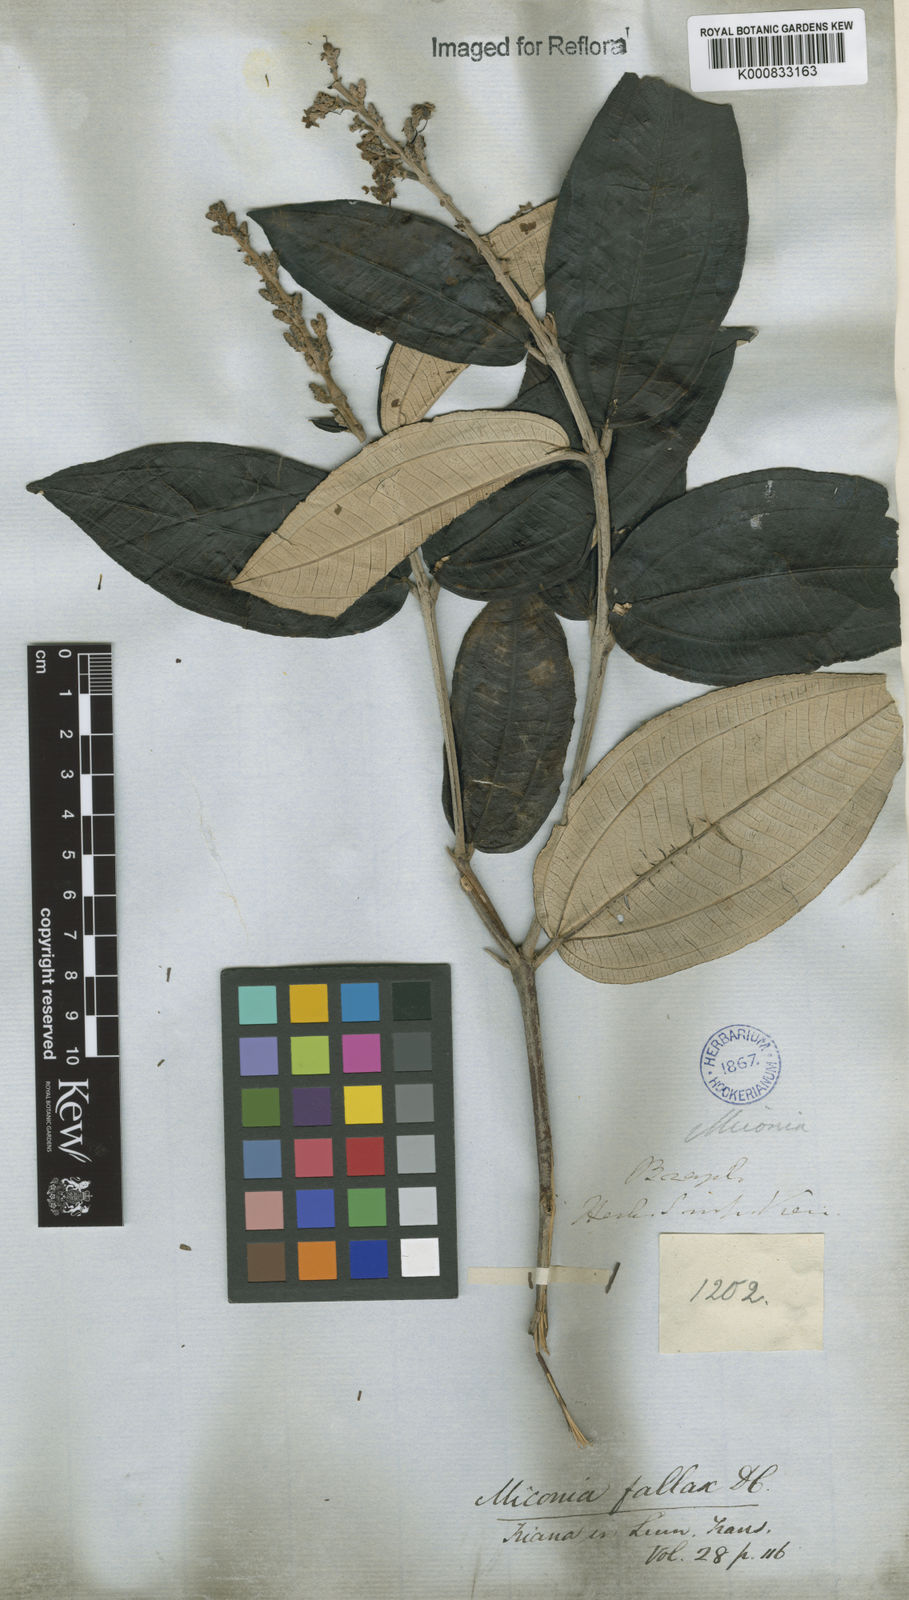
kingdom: Plantae
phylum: Tracheophyta
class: Magnoliopsida
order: Myrtales
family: Melastomataceae
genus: Miconia
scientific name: Miconia fallax
